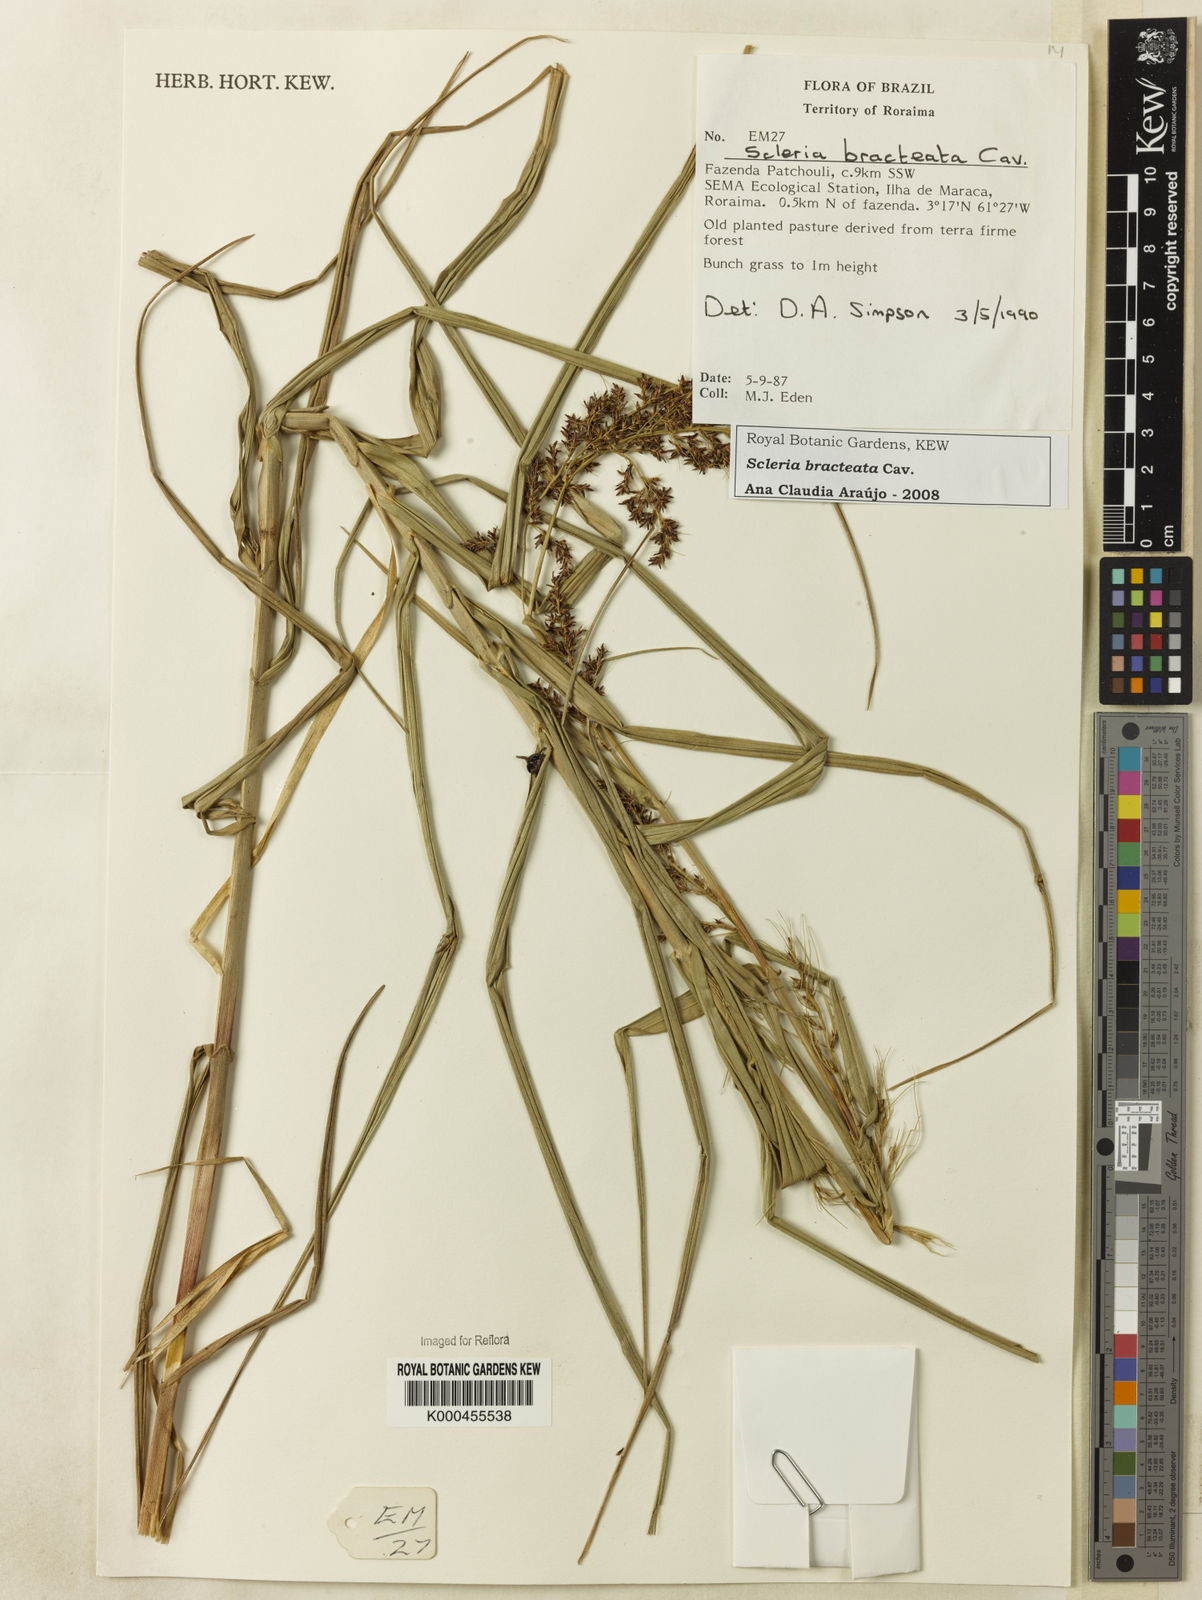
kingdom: Plantae
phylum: Tracheophyta
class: Liliopsida
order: Poales
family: Cyperaceae
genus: Scleria
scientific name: Scleria bracteata
